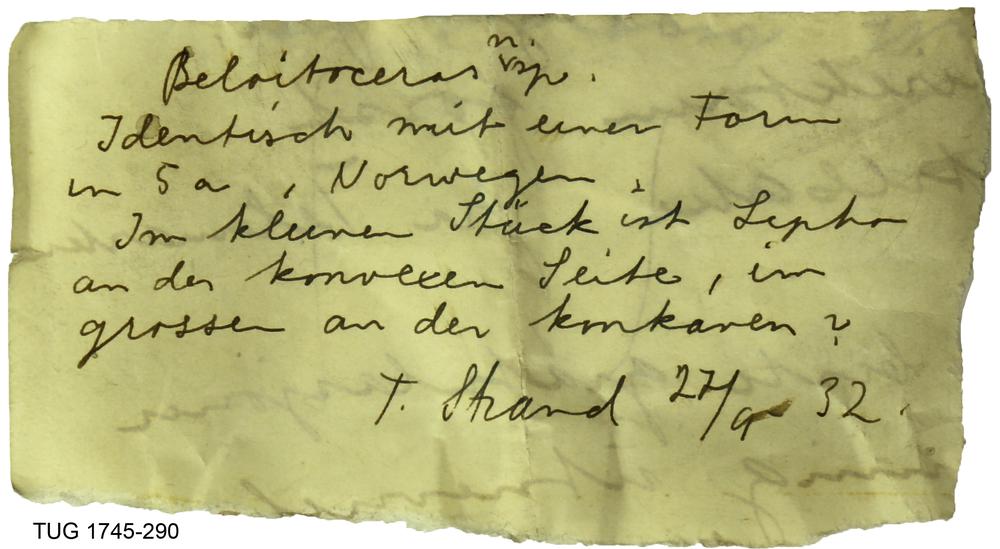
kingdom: Animalia
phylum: Mollusca
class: Cephalopoda
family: Oncoceratidae
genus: Beloitoceras
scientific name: Beloitoceras
